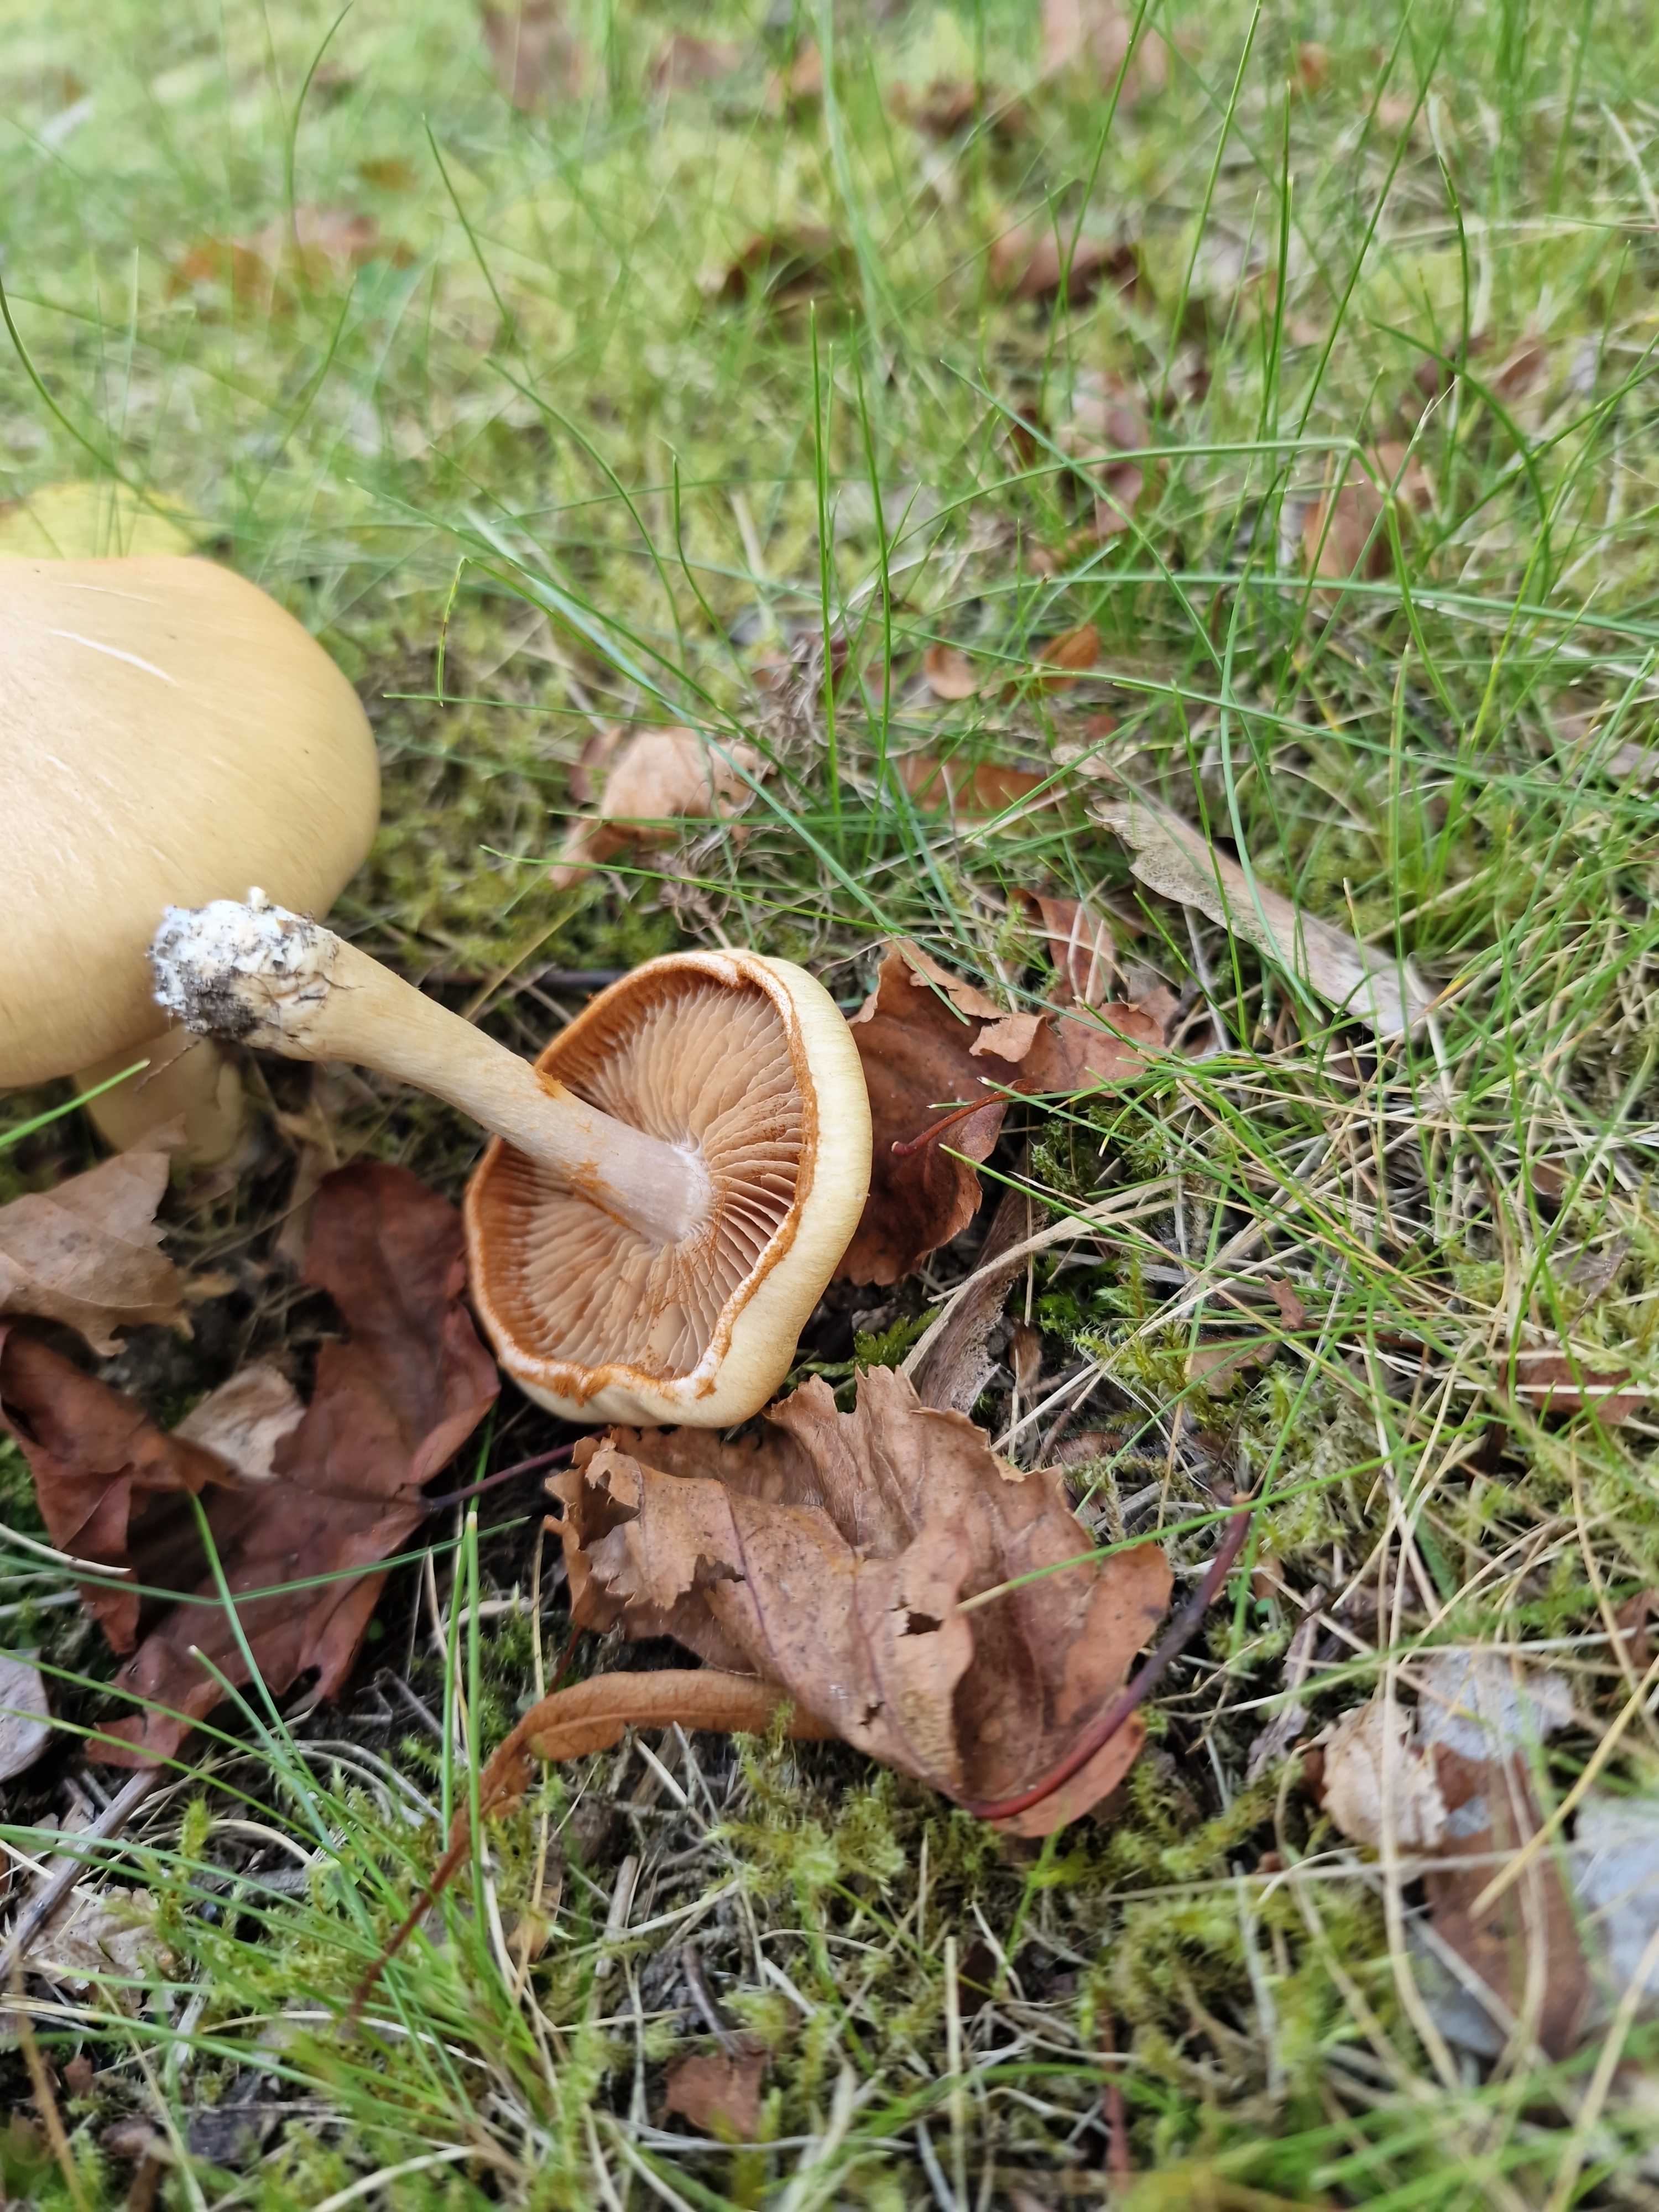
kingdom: Fungi
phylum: Basidiomycota
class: Agaricomycetes
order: Agaricales
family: Cortinariaceae
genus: Cortinarius
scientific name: Cortinarius
